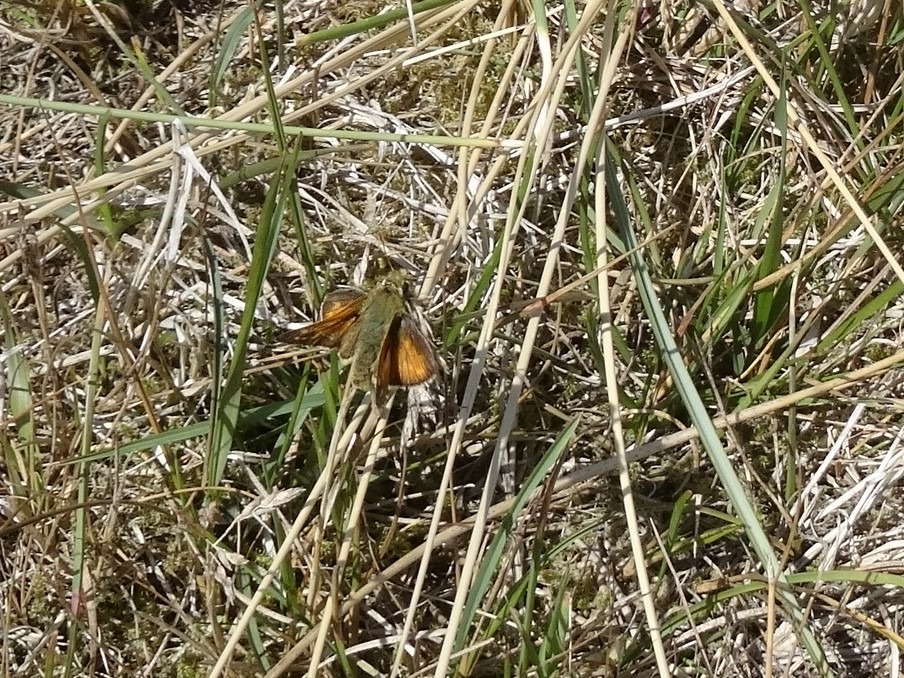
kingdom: Animalia
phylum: Arthropoda
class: Insecta
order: Lepidoptera
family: Hesperiidae
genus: Hesperia
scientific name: Hesperia comma
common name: Kommabredpande
